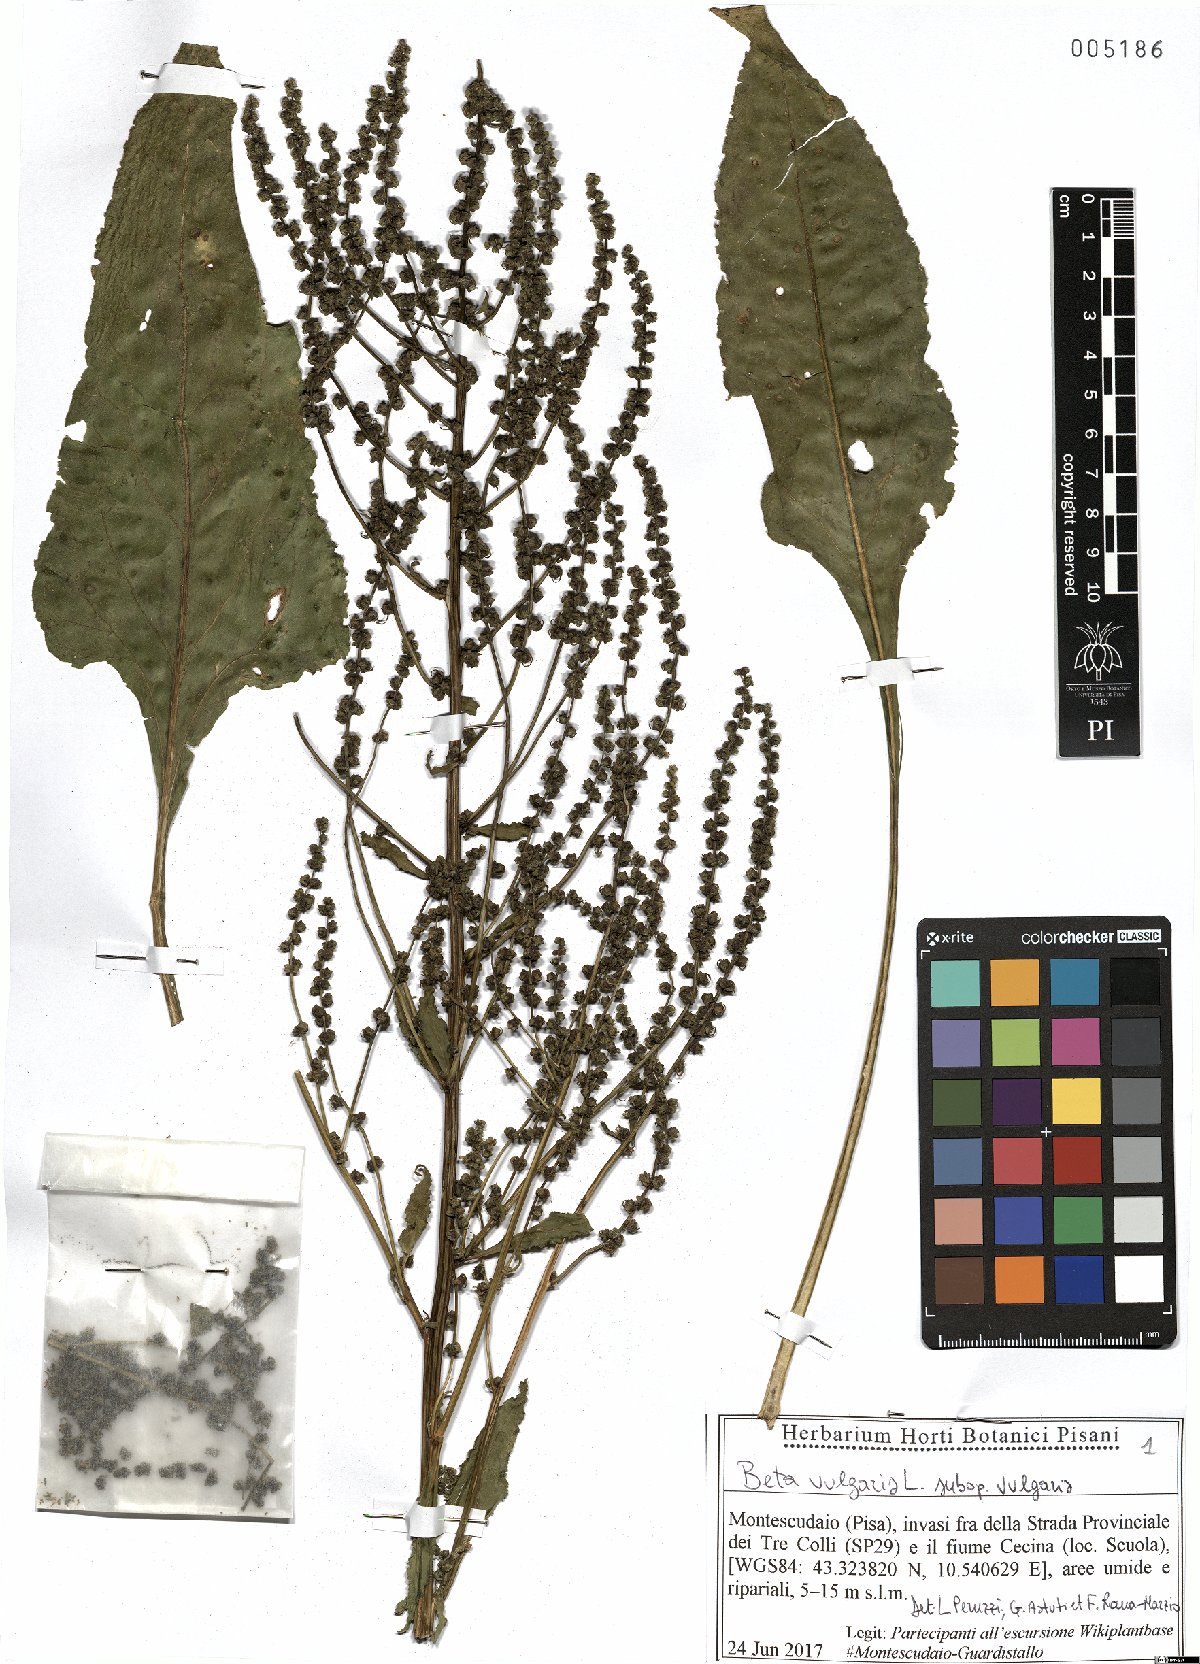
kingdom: Plantae
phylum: Tracheophyta
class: Magnoliopsida
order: Caryophyllales
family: Amaranthaceae
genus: Beta
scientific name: Beta vulgaris
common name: Beet
